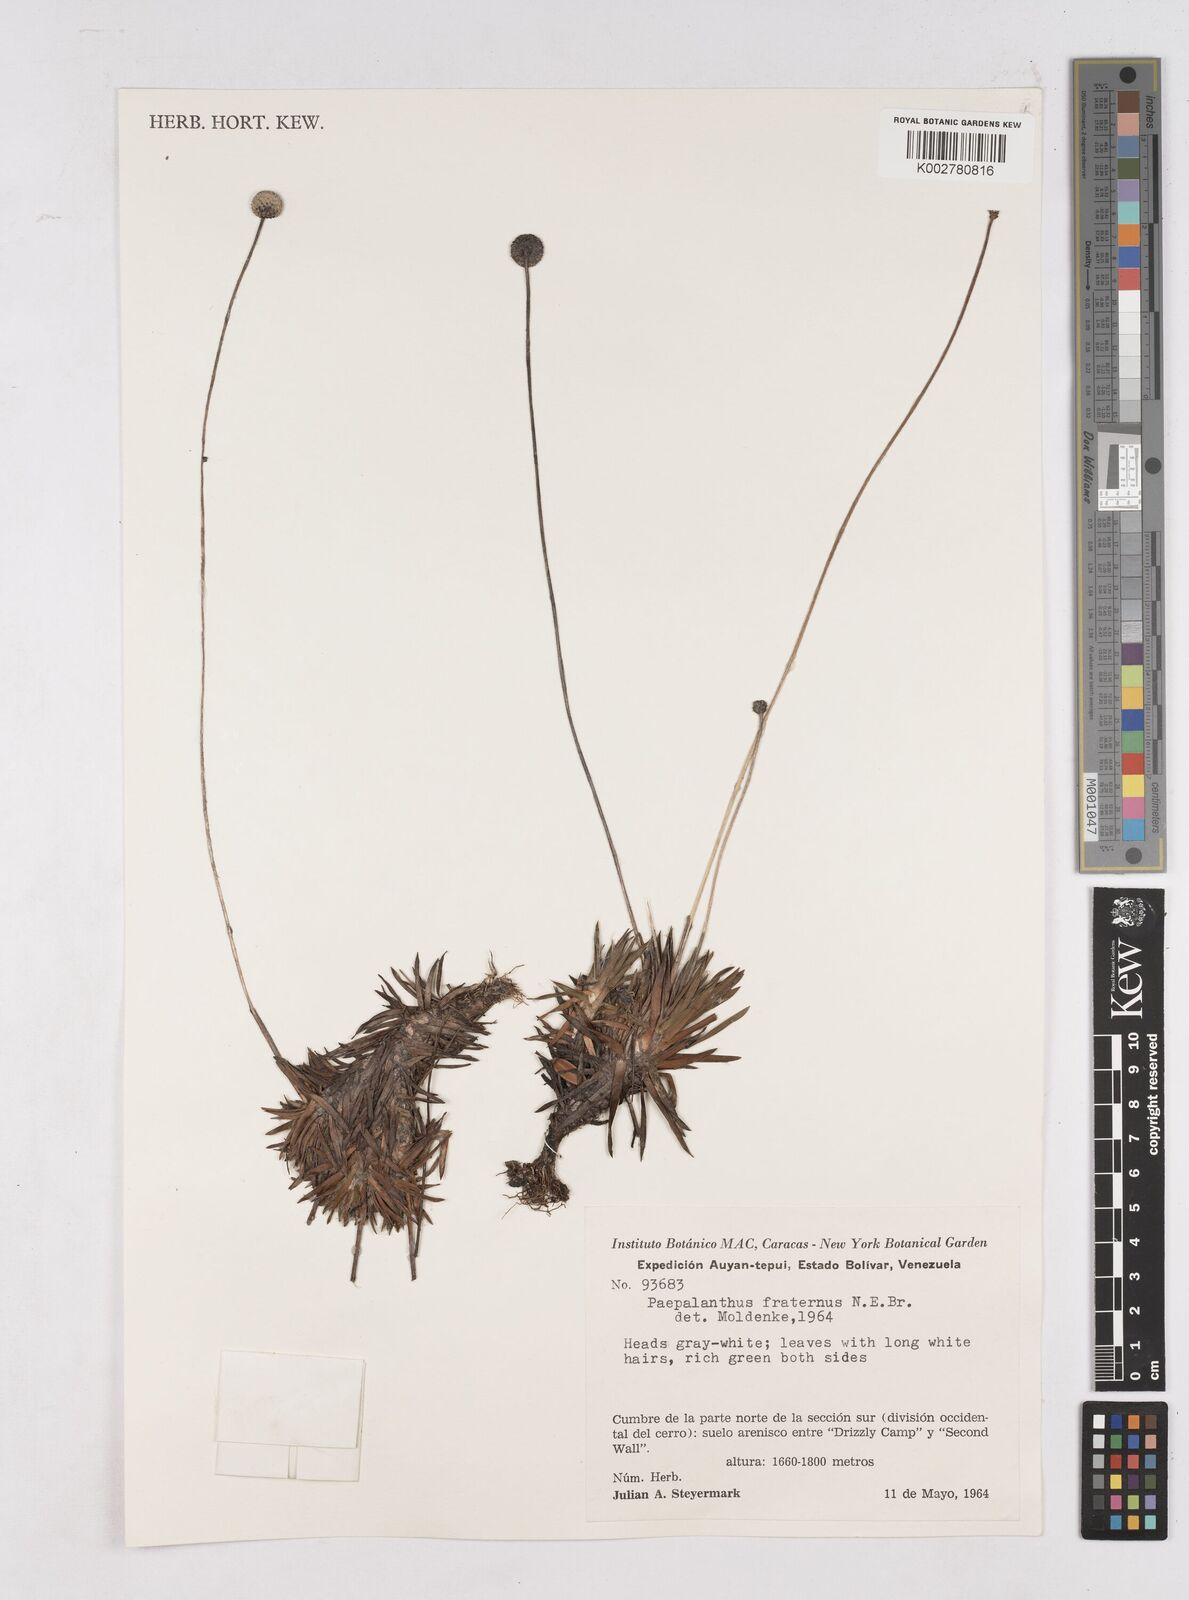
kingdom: Plantae
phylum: Tracheophyta
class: Liliopsida
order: Poales
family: Eriocaulaceae
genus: Paepalanthus
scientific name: Paepalanthus fraternus
